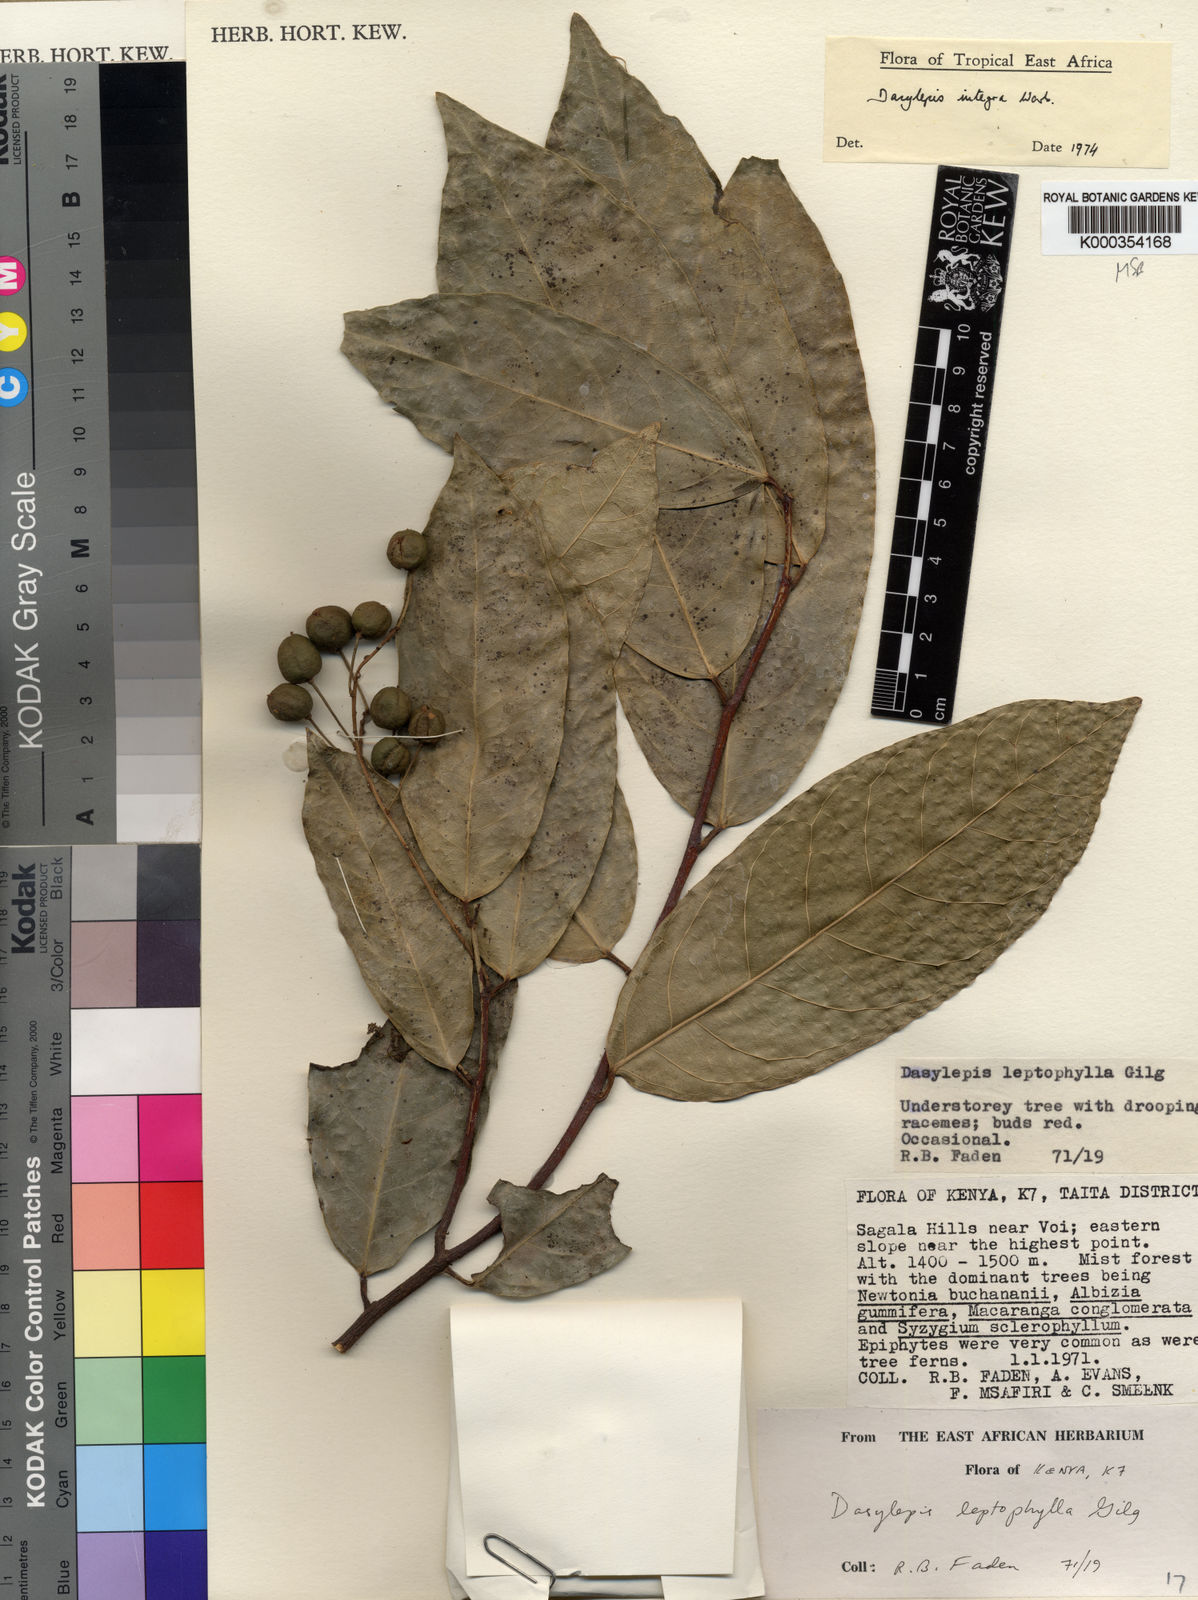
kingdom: Plantae
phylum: Tracheophyta
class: Magnoliopsida
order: Malpighiales
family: Achariaceae
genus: Dasylepis
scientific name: Dasylepis integra
